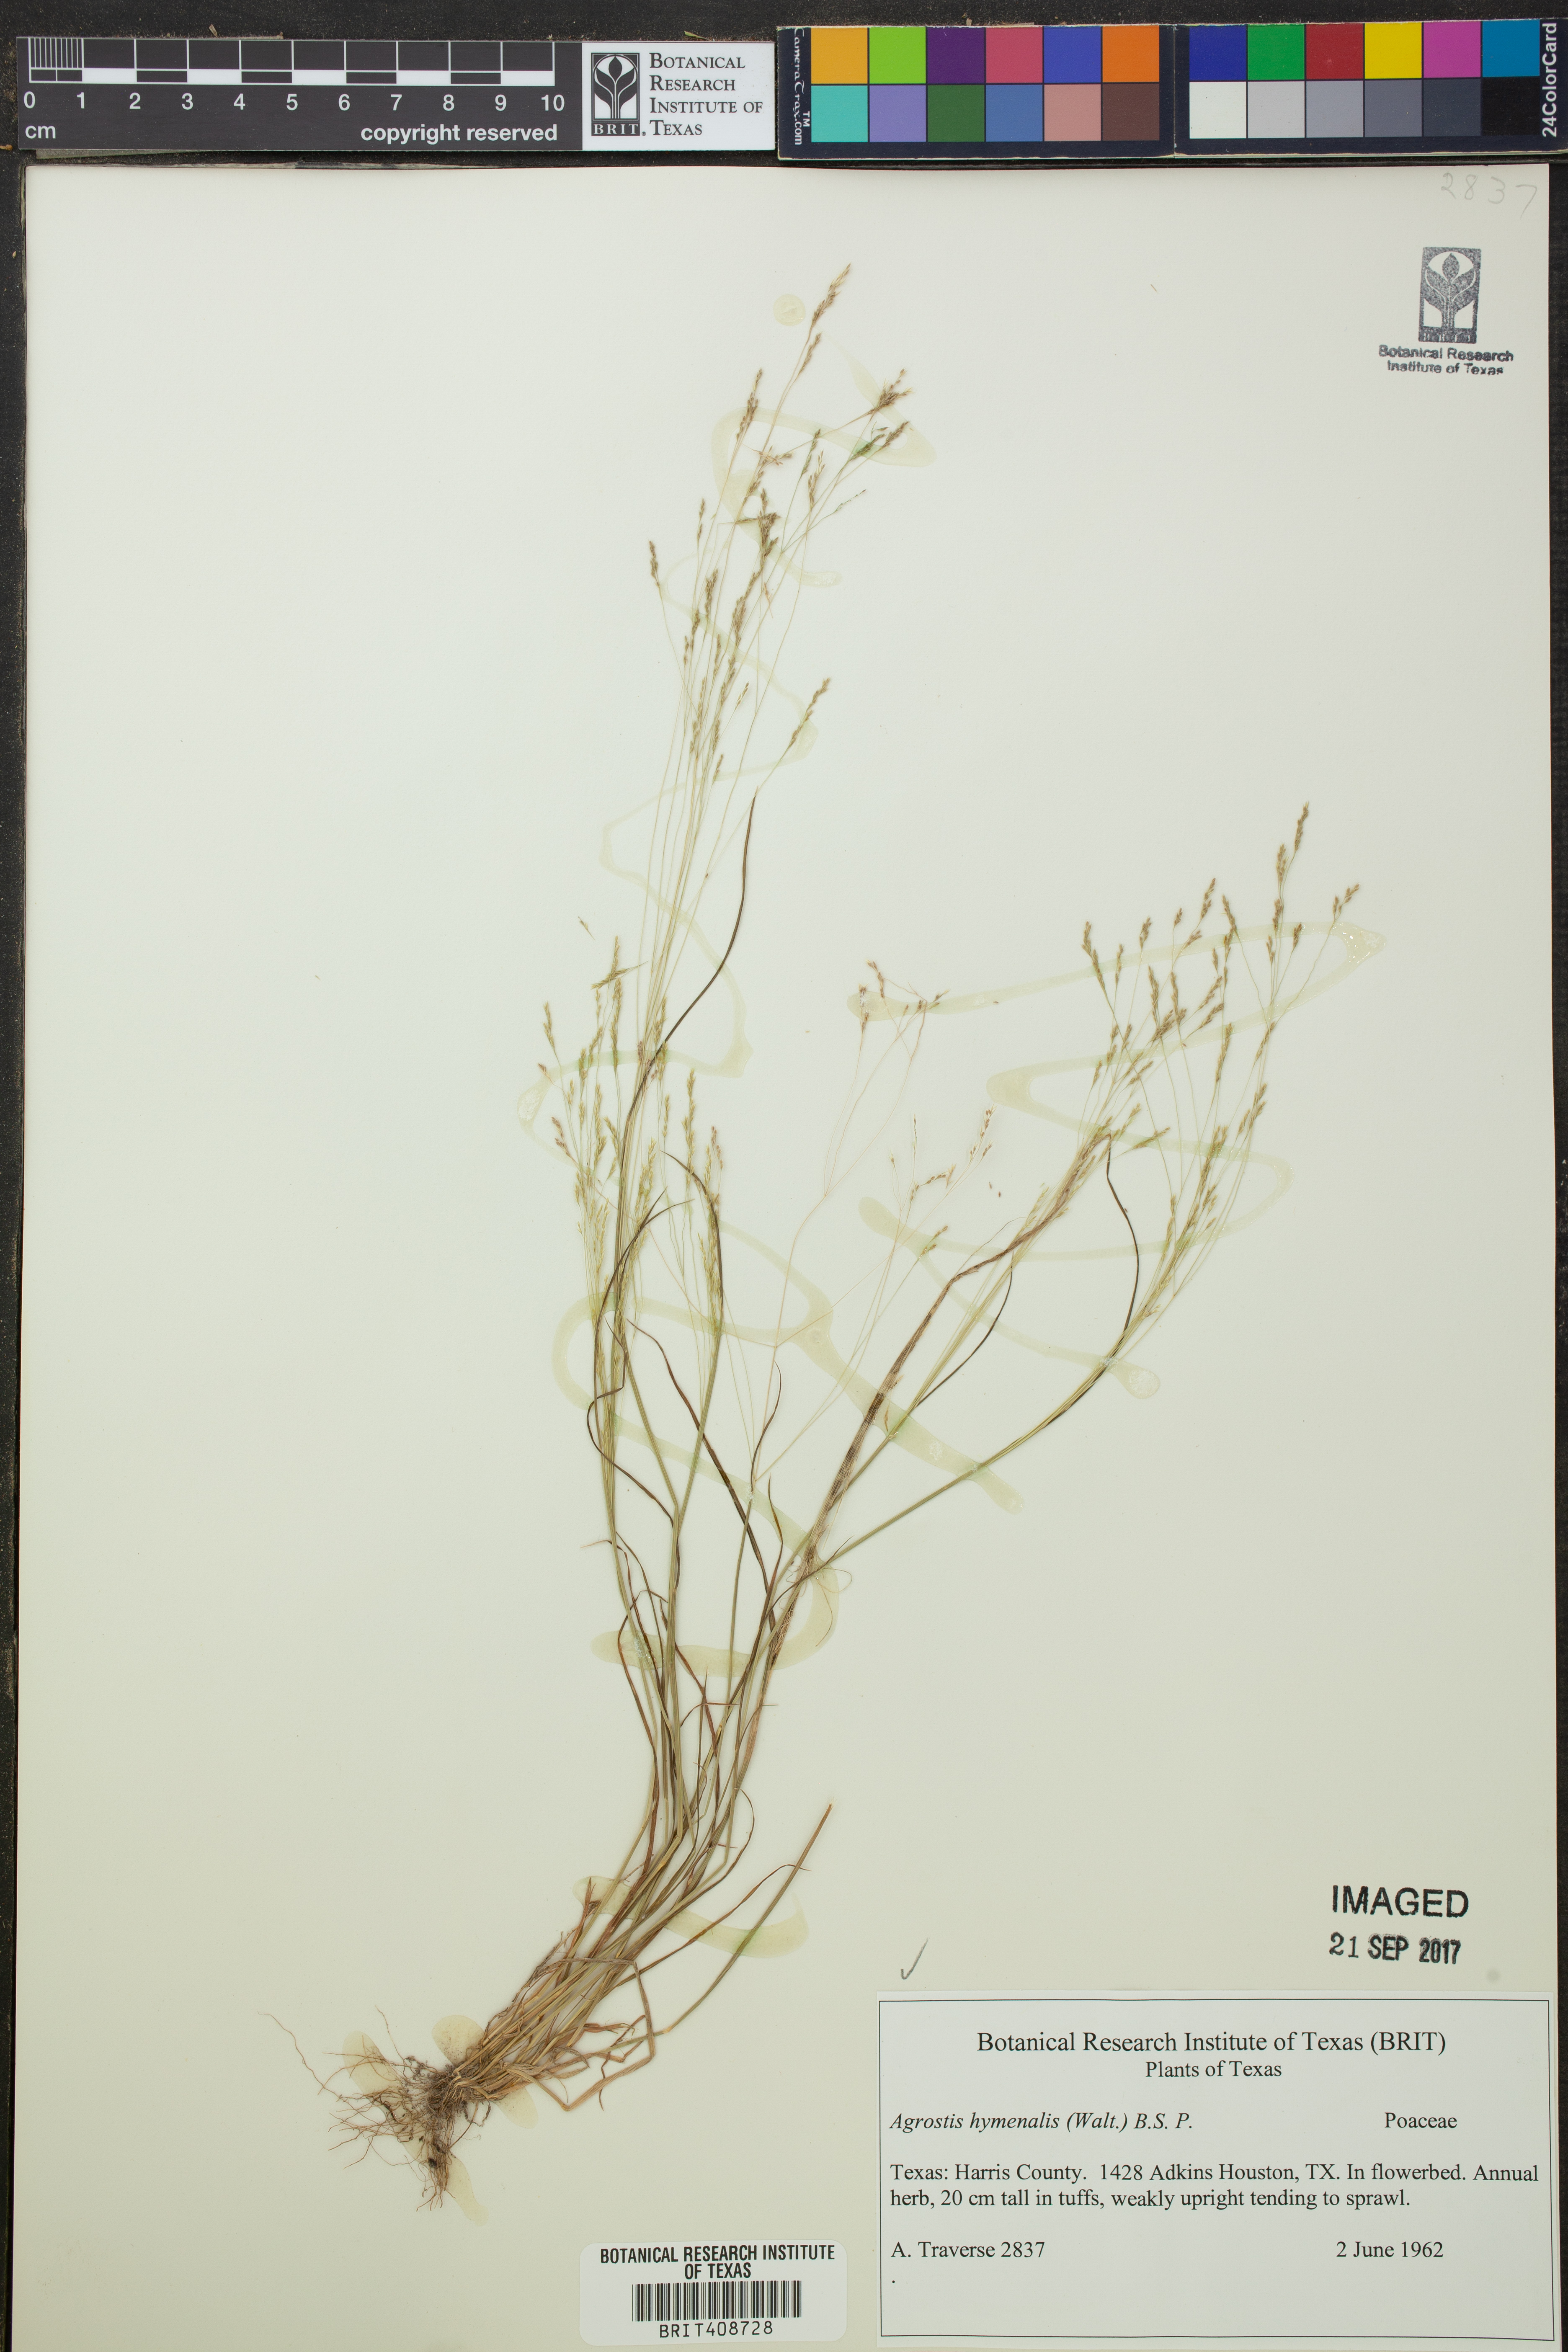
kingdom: Plantae
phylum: Tracheophyta
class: Liliopsida
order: Poales
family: Poaceae
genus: Agrostis
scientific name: Agrostis hyemalis
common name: Small bent
